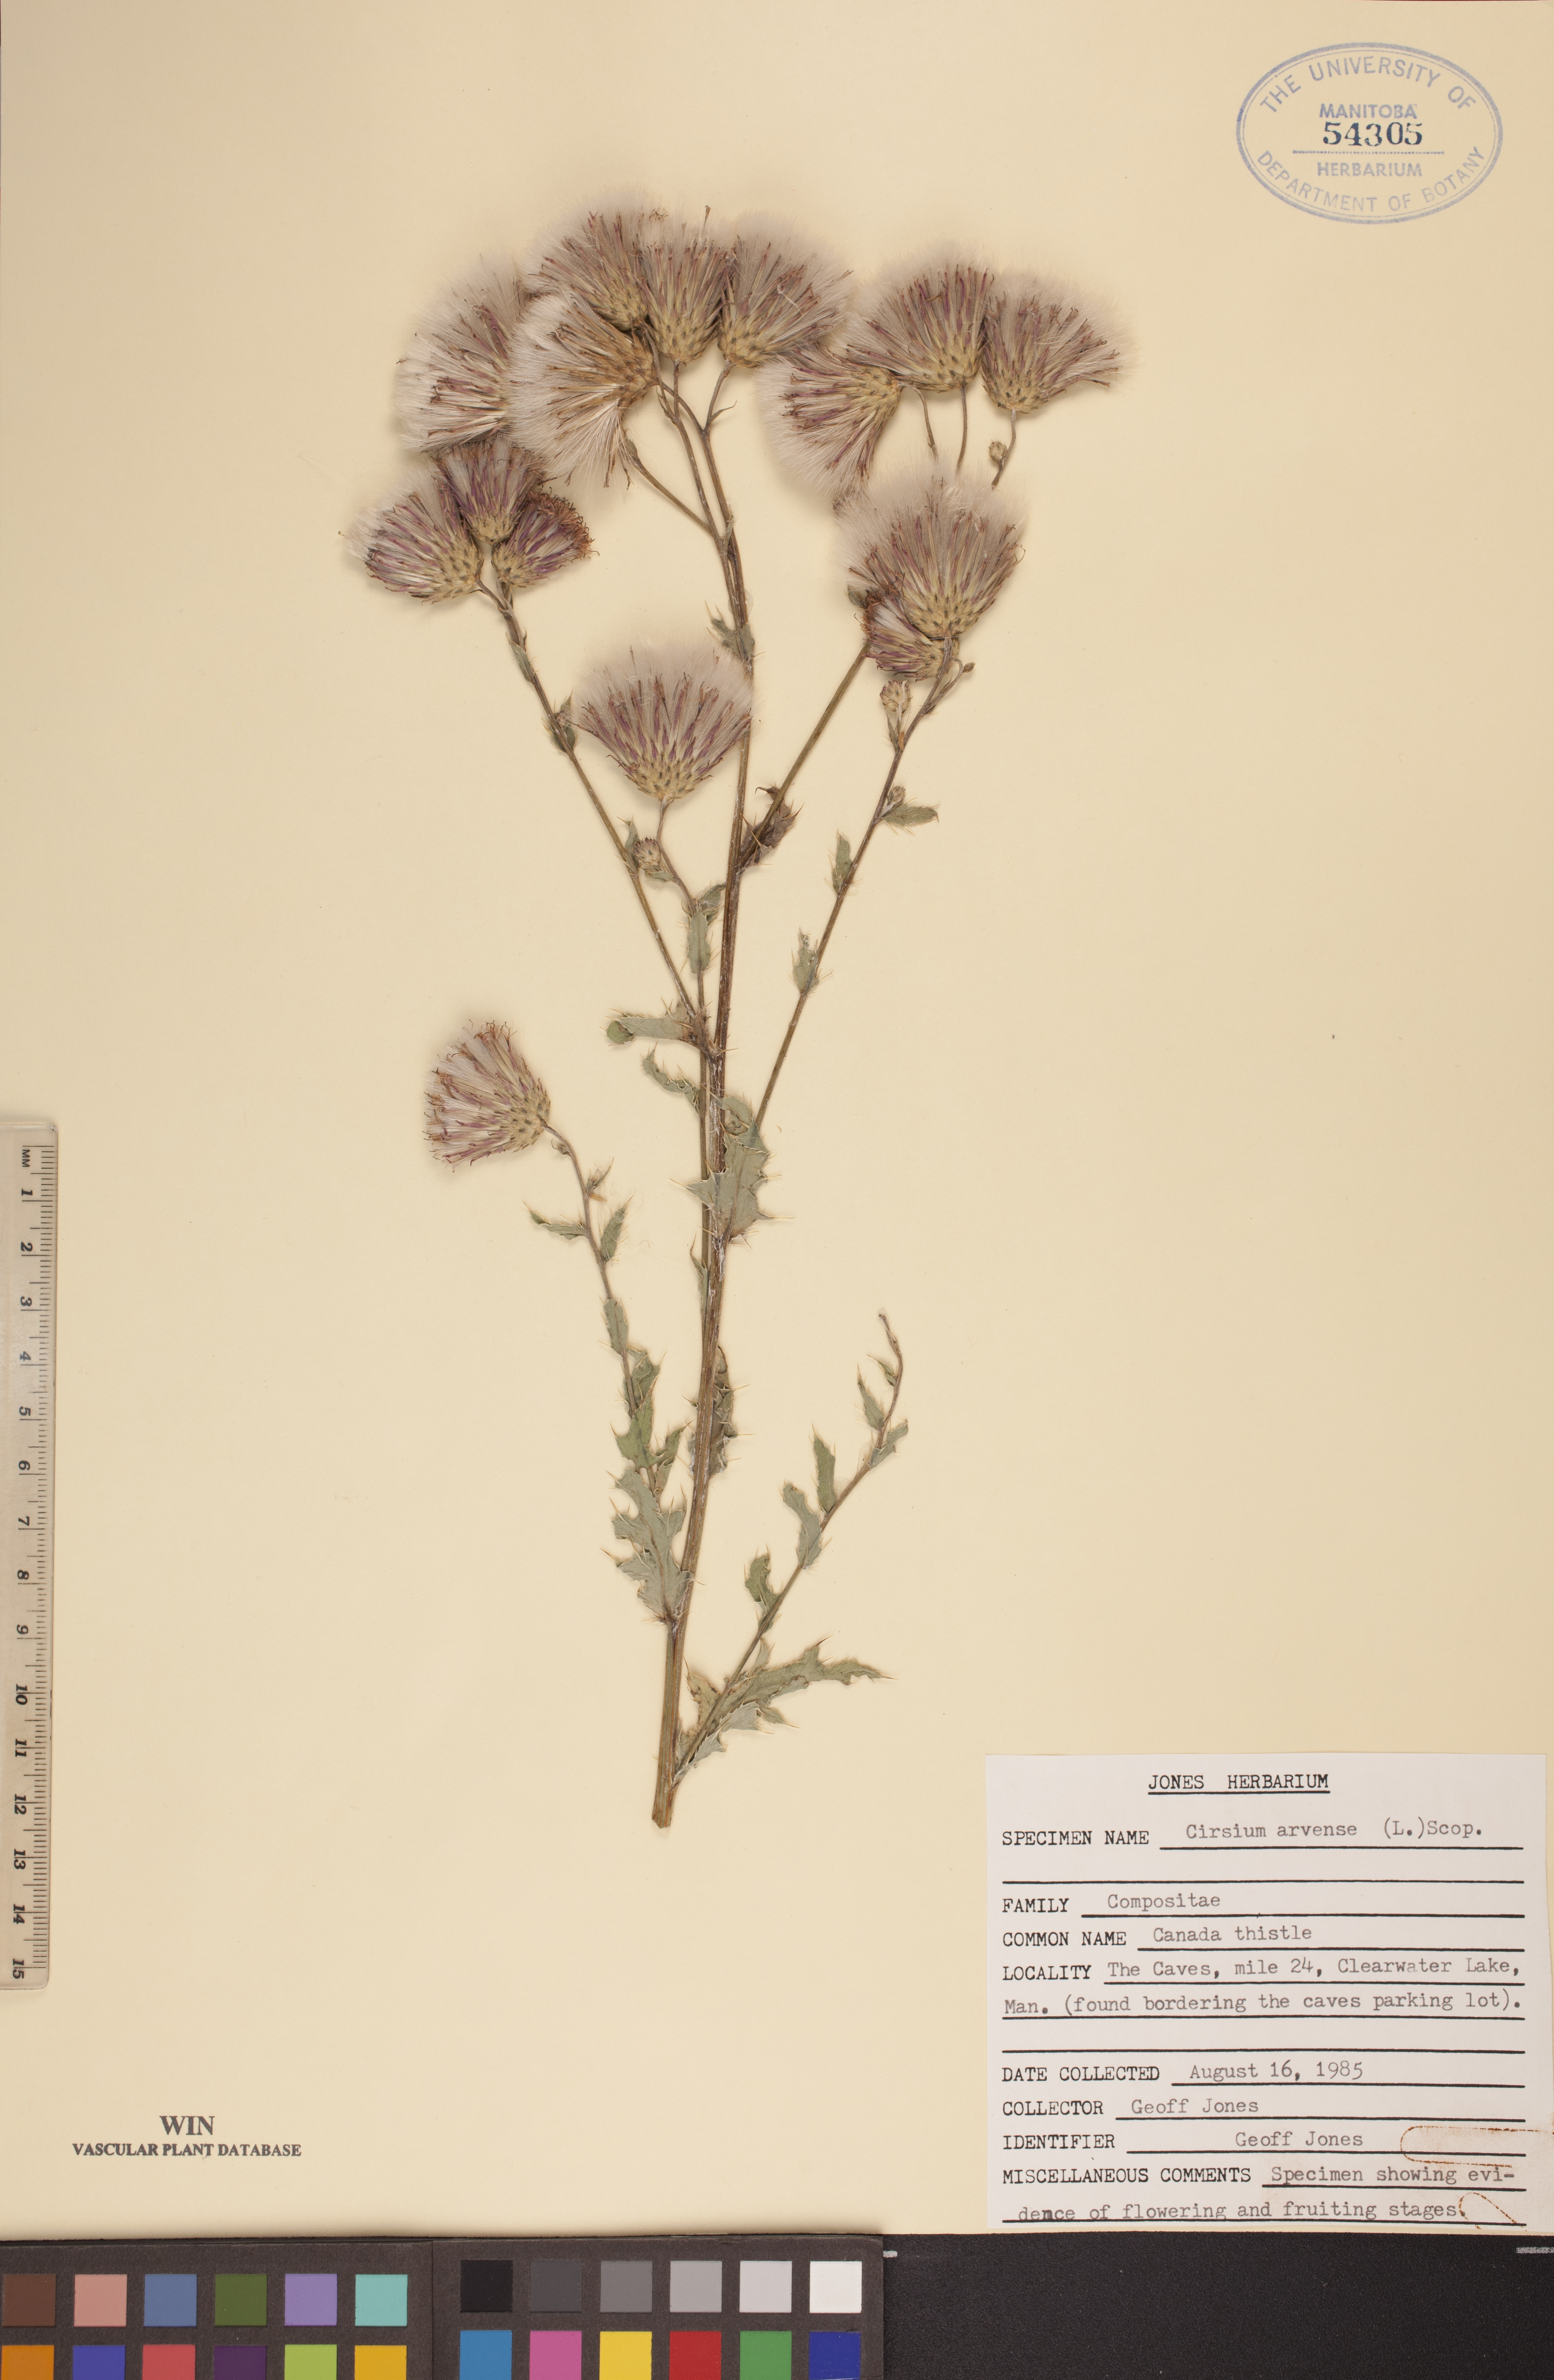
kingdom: Plantae
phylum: Tracheophyta
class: Magnoliopsida
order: Asterales
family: Asteraceae
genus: Cirsium
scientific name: Cirsium arvense
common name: Creeping thistle
